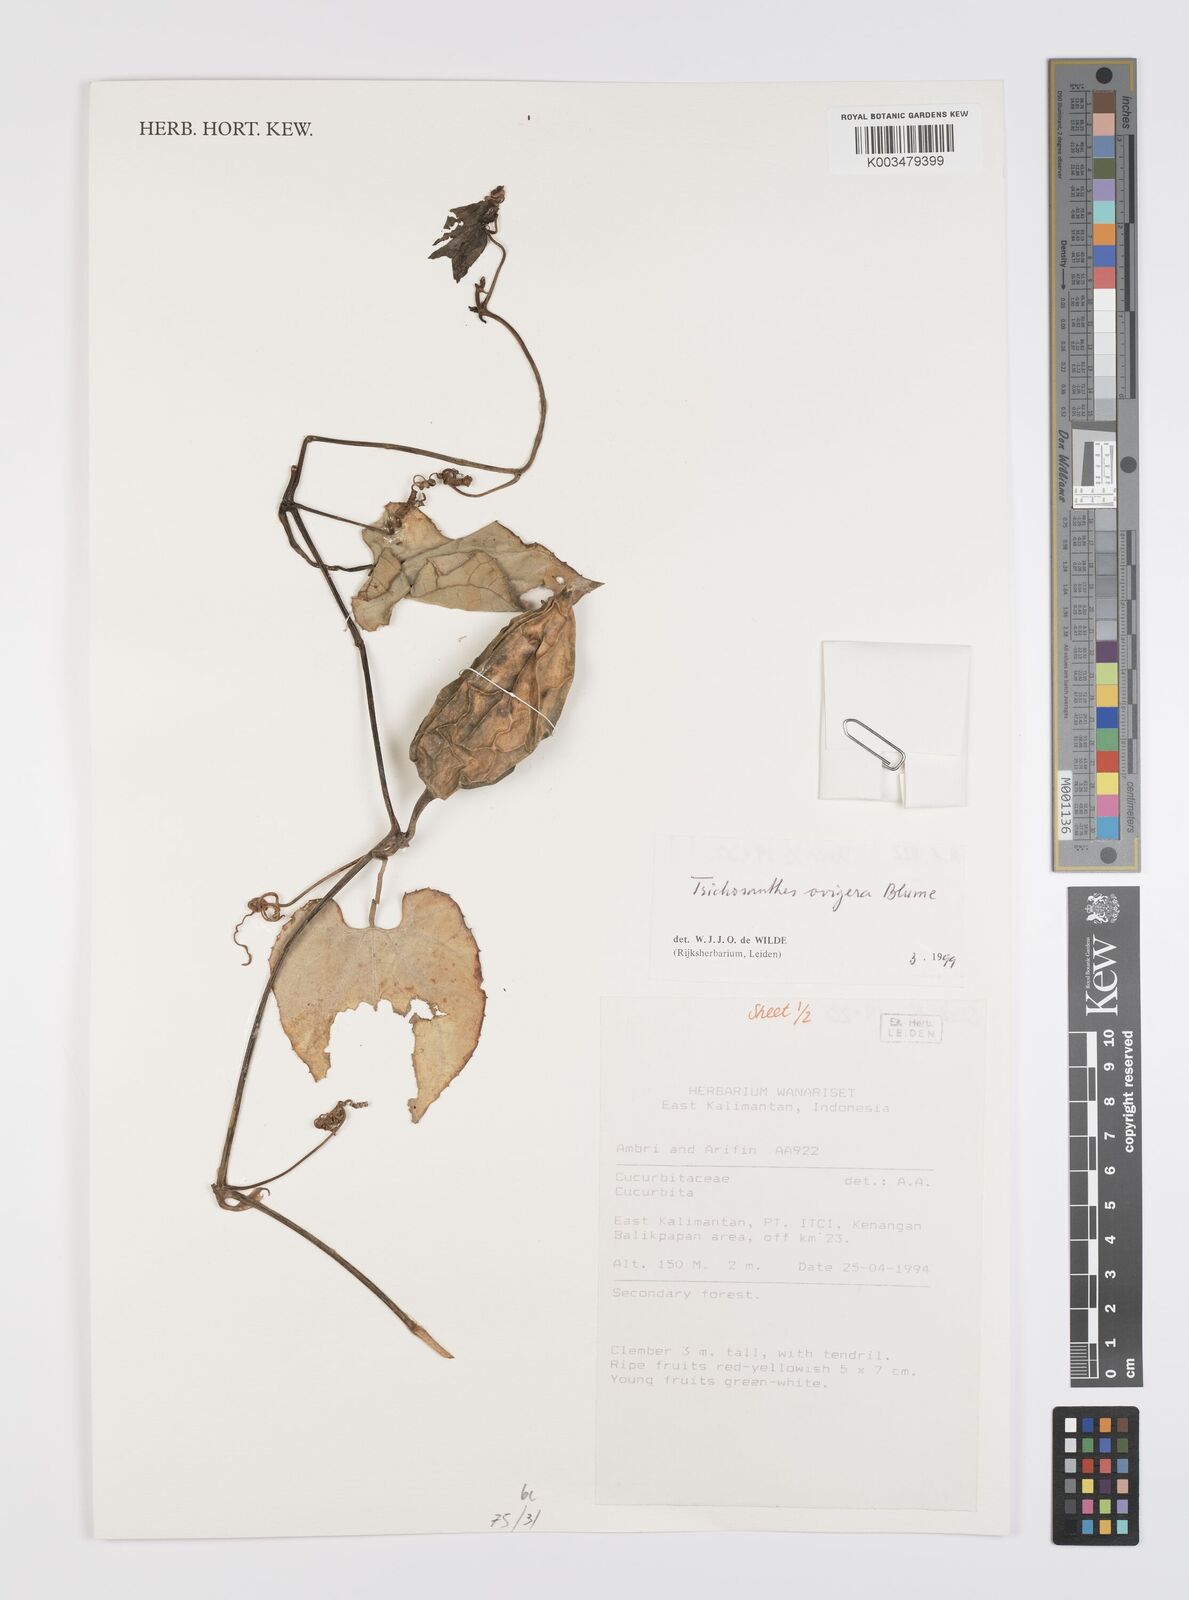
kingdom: Plantae
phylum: Tracheophyta
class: Magnoliopsida
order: Cucurbitales
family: Cucurbitaceae
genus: Trichosanthes
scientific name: Trichosanthes ovigera
